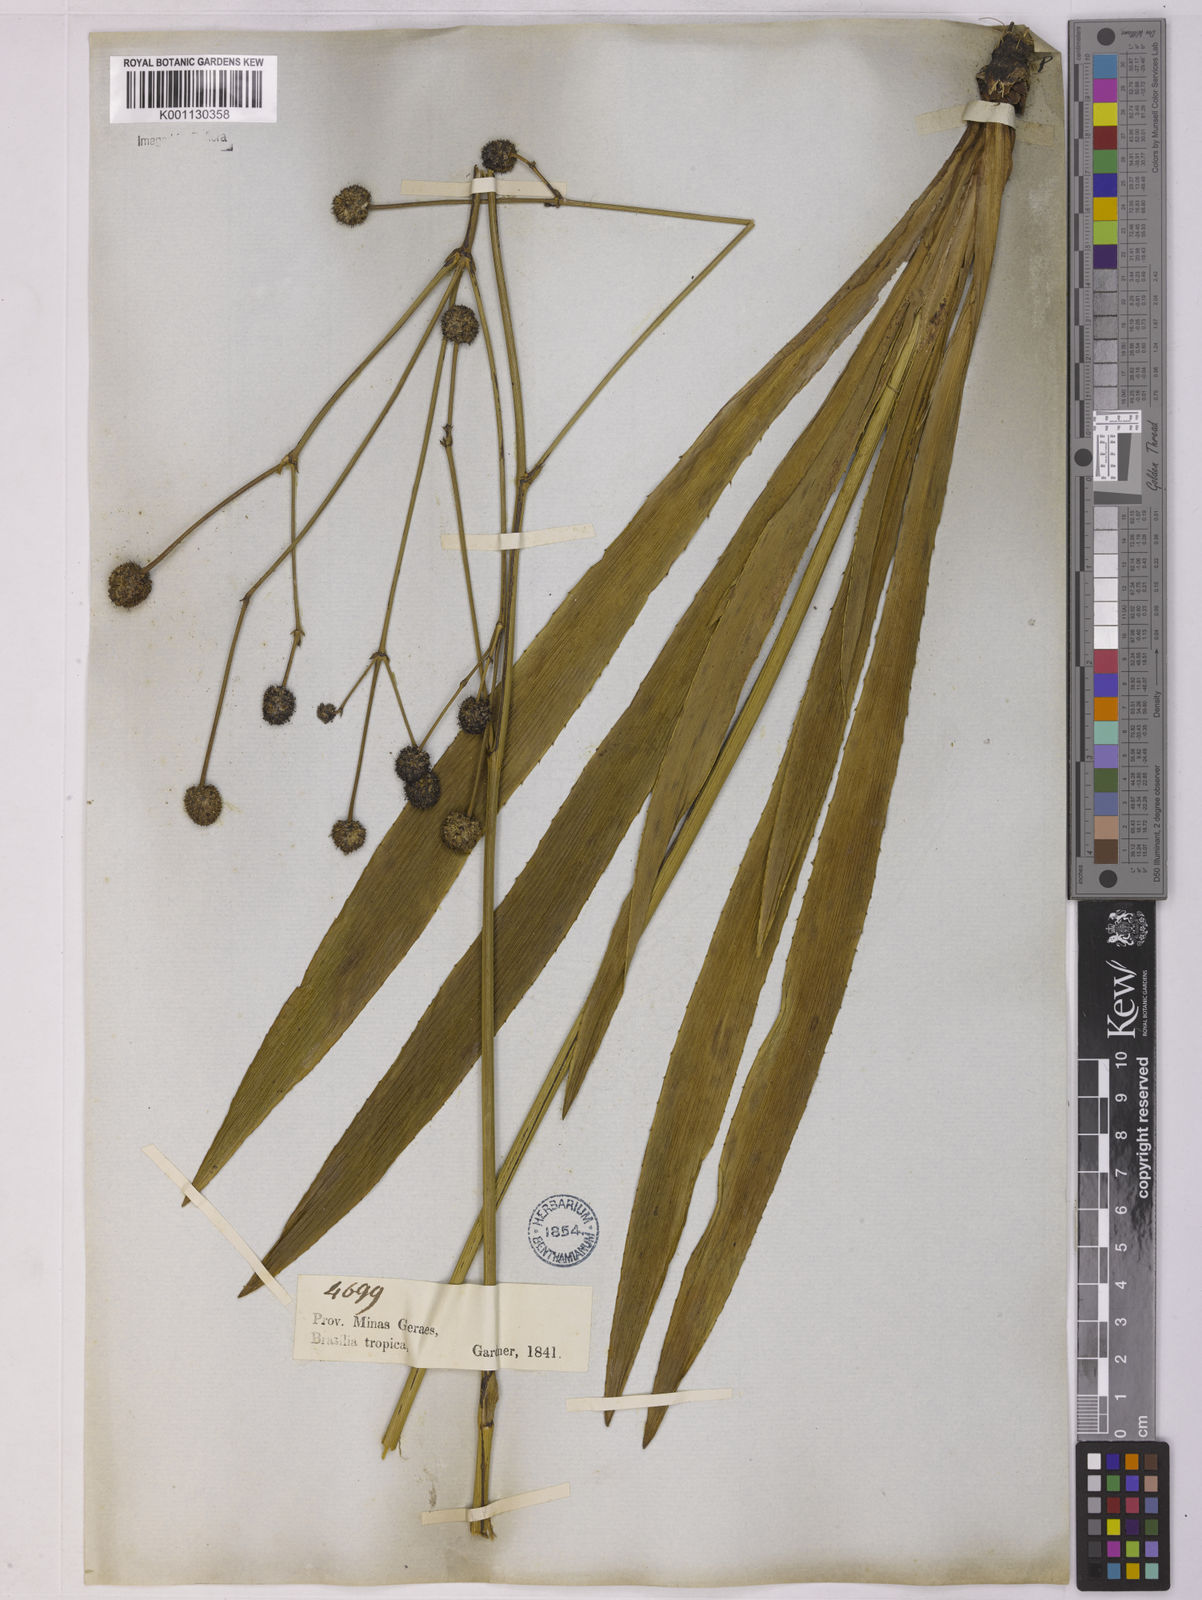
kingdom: Plantae
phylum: Tracheophyta
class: Magnoliopsida
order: Apiales
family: Apiaceae
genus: Eryngium
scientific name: Eryngium sanguisorba
